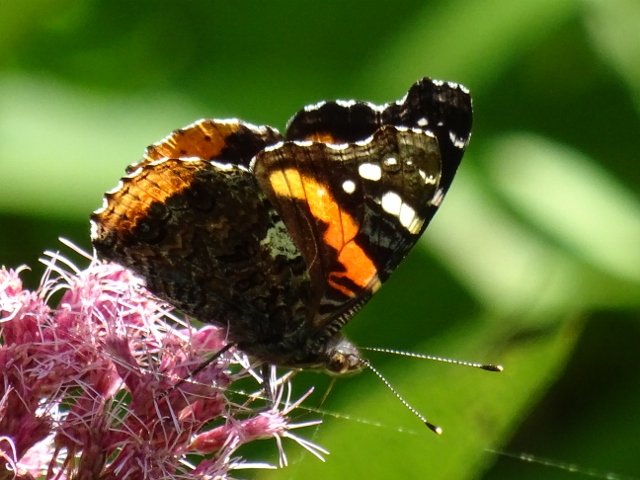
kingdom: Animalia
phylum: Arthropoda
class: Insecta
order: Lepidoptera
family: Nymphalidae
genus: Vanessa
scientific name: Vanessa atalanta
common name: Red Admiral
